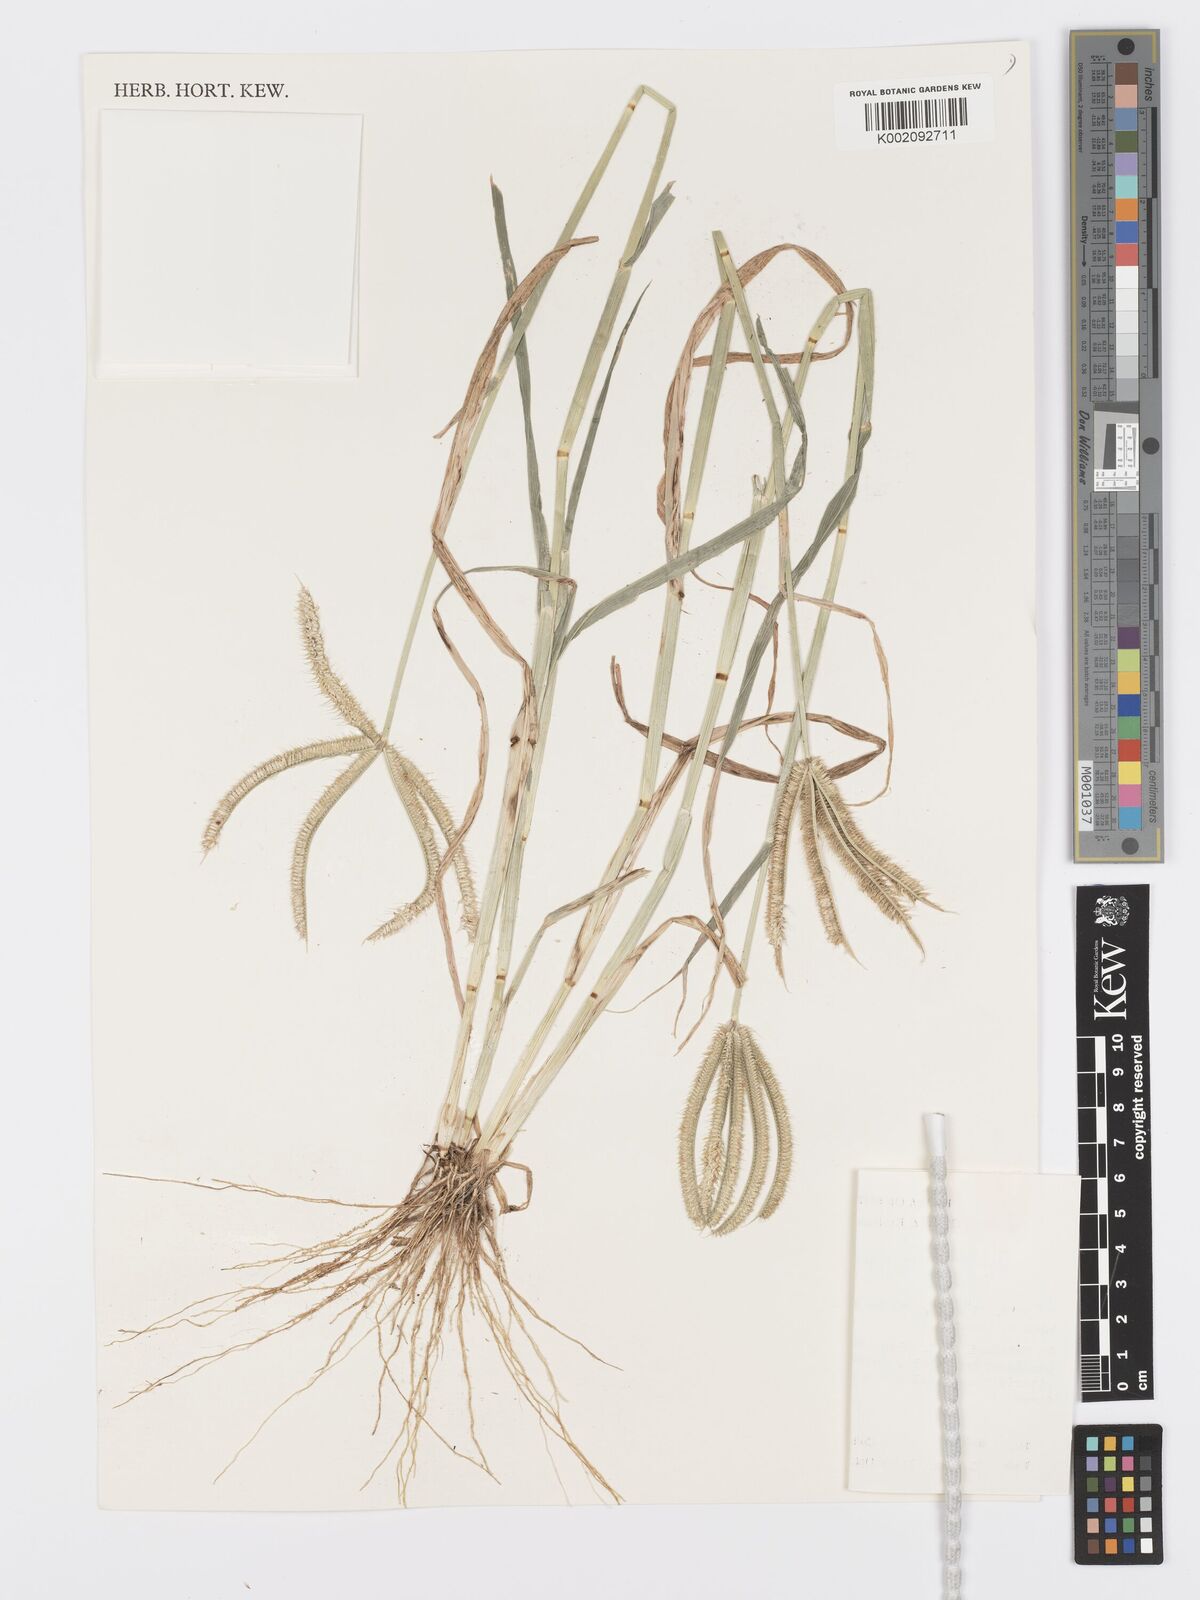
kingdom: Plantae
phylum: Tracheophyta
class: Liliopsida
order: Poales
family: Poaceae
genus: Dactyloctenium
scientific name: Dactyloctenium giganteum
